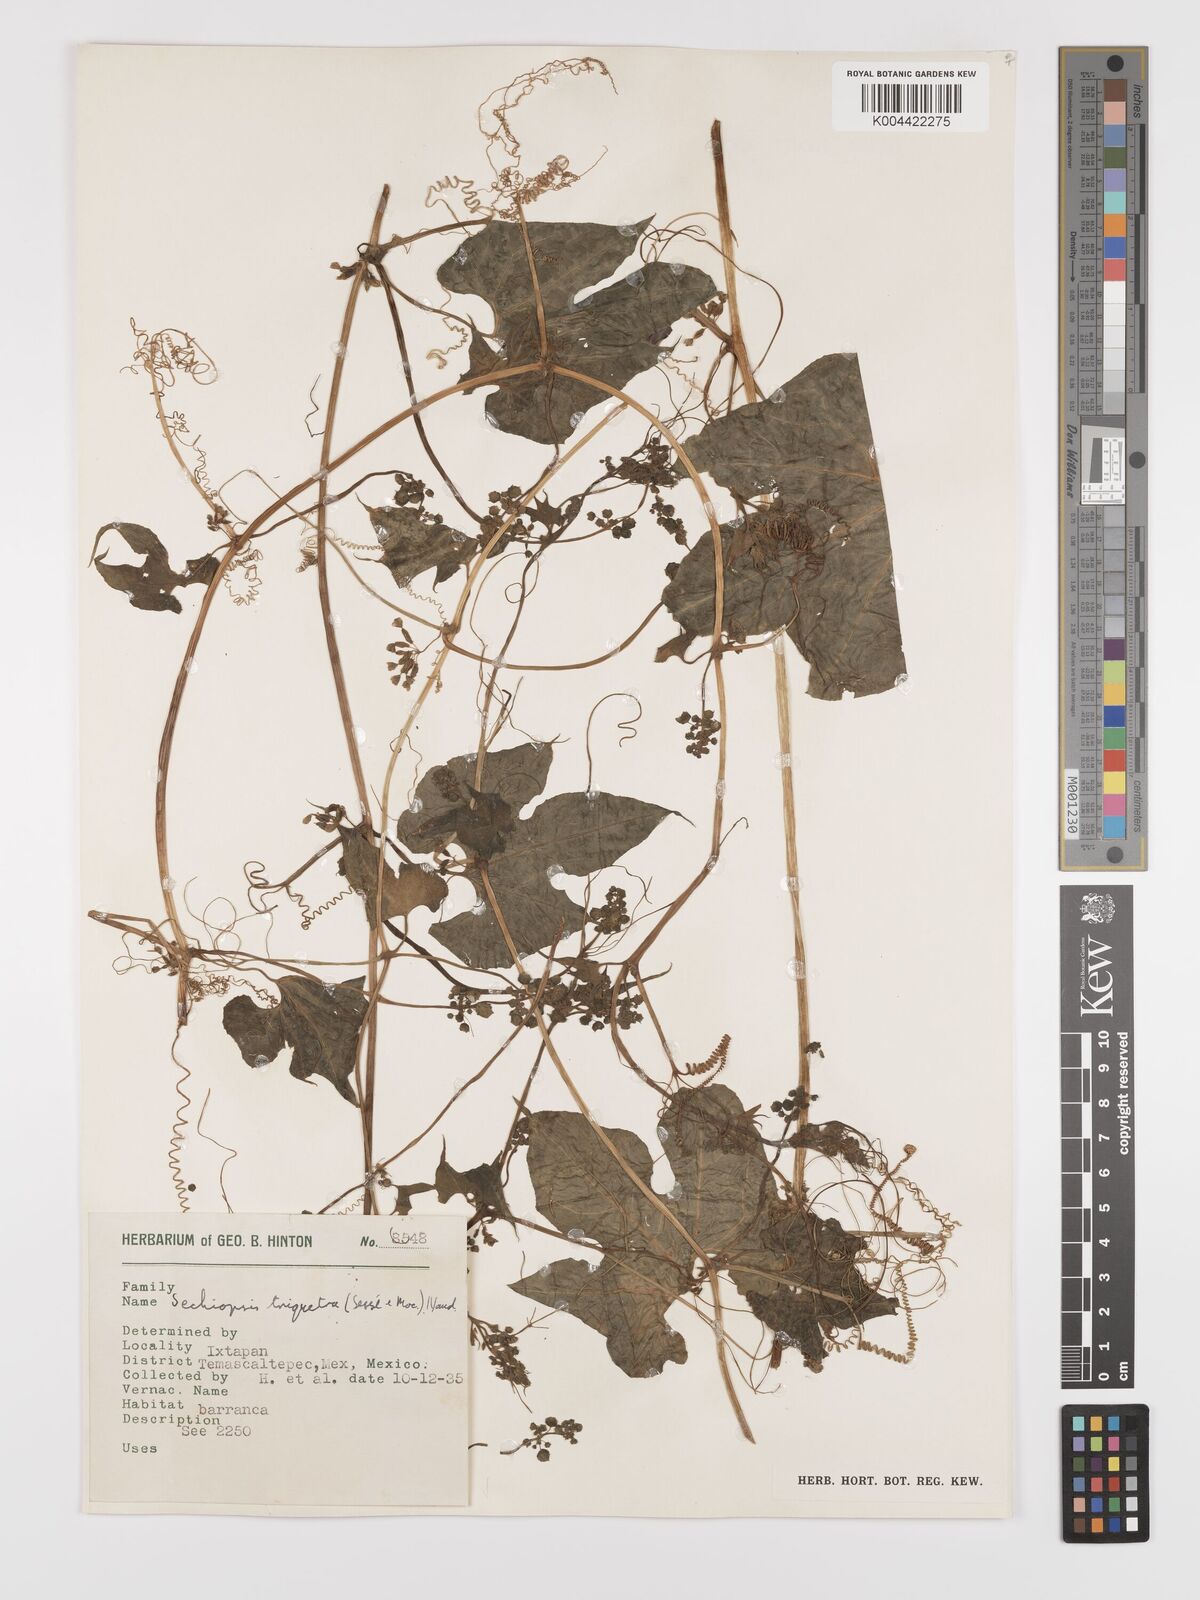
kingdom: Plantae
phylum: Tracheophyta
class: Magnoliopsida
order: Cucurbitales
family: Cucurbitaceae
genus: Sechiopsis
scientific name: Sechiopsis triqueter
